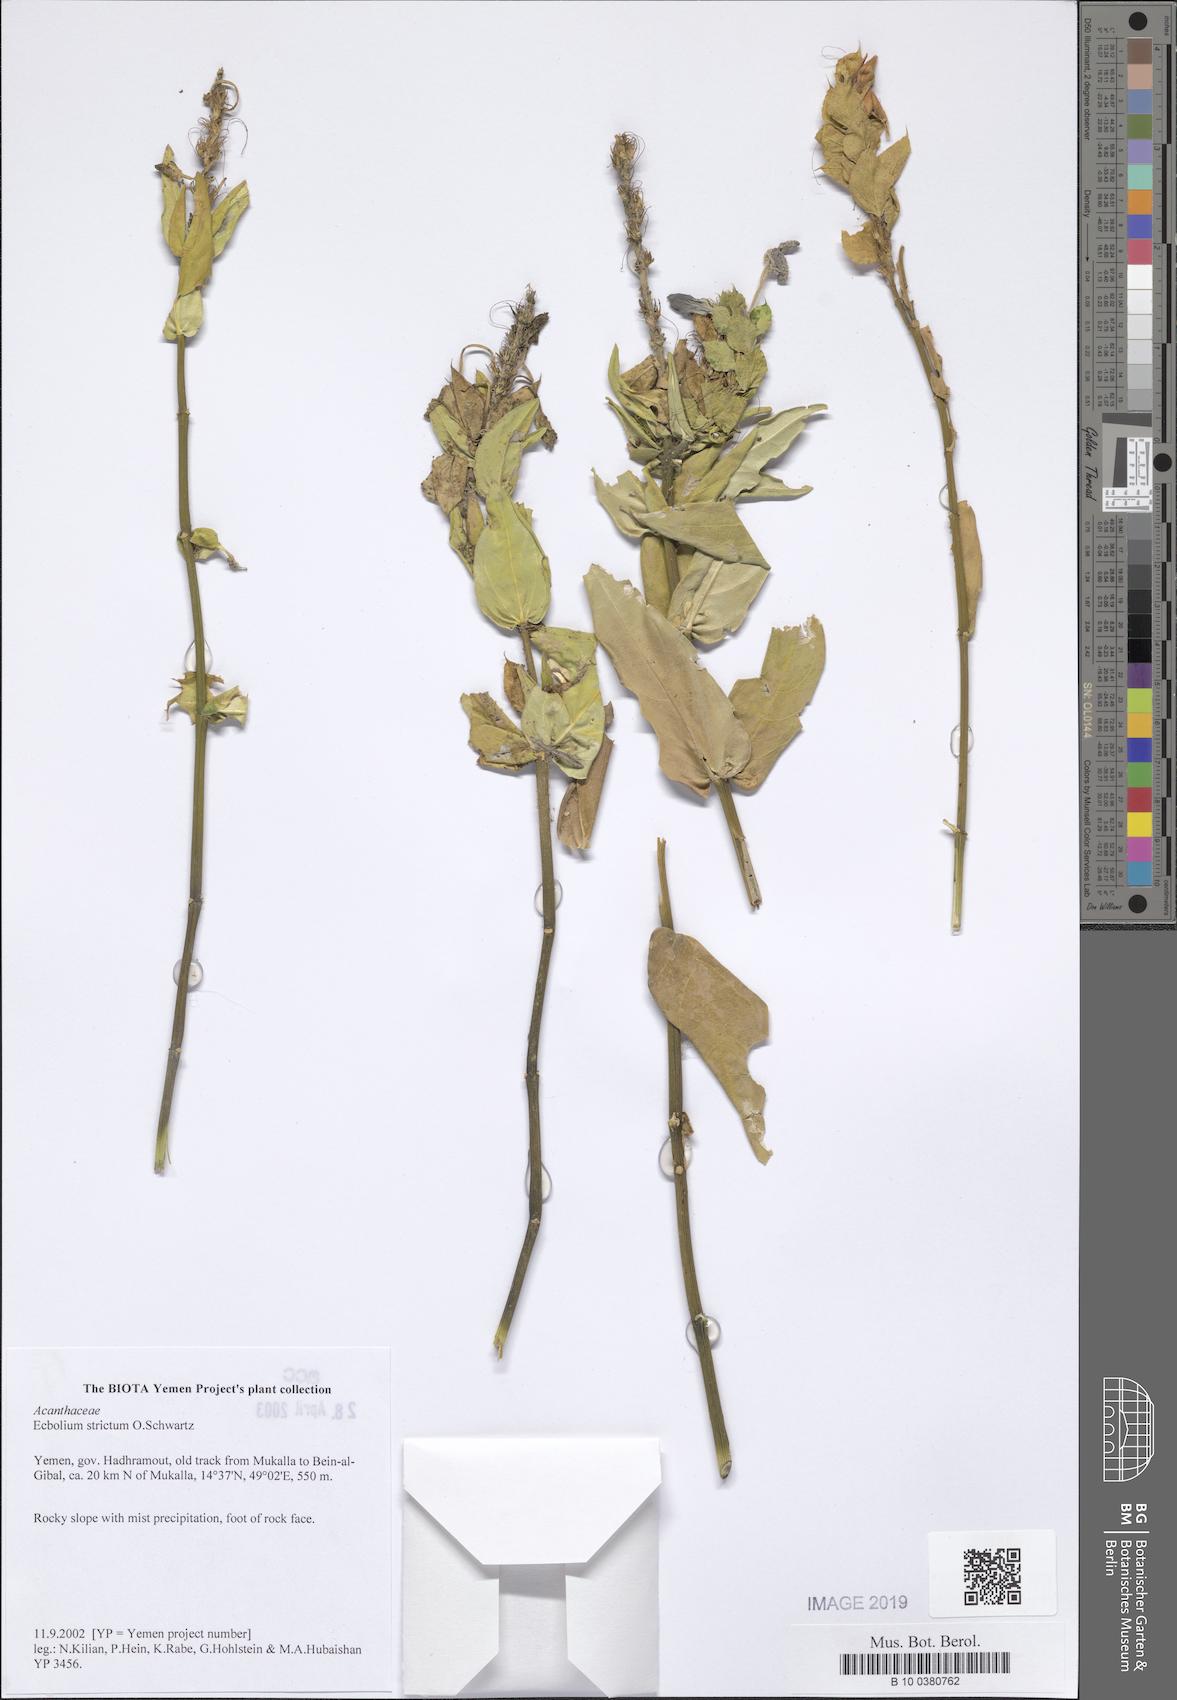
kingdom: Plantae
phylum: Tracheophyta
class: Magnoliopsida
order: Lamiales
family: Acanthaceae
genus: Ecbolium
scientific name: Ecbolium strictum
